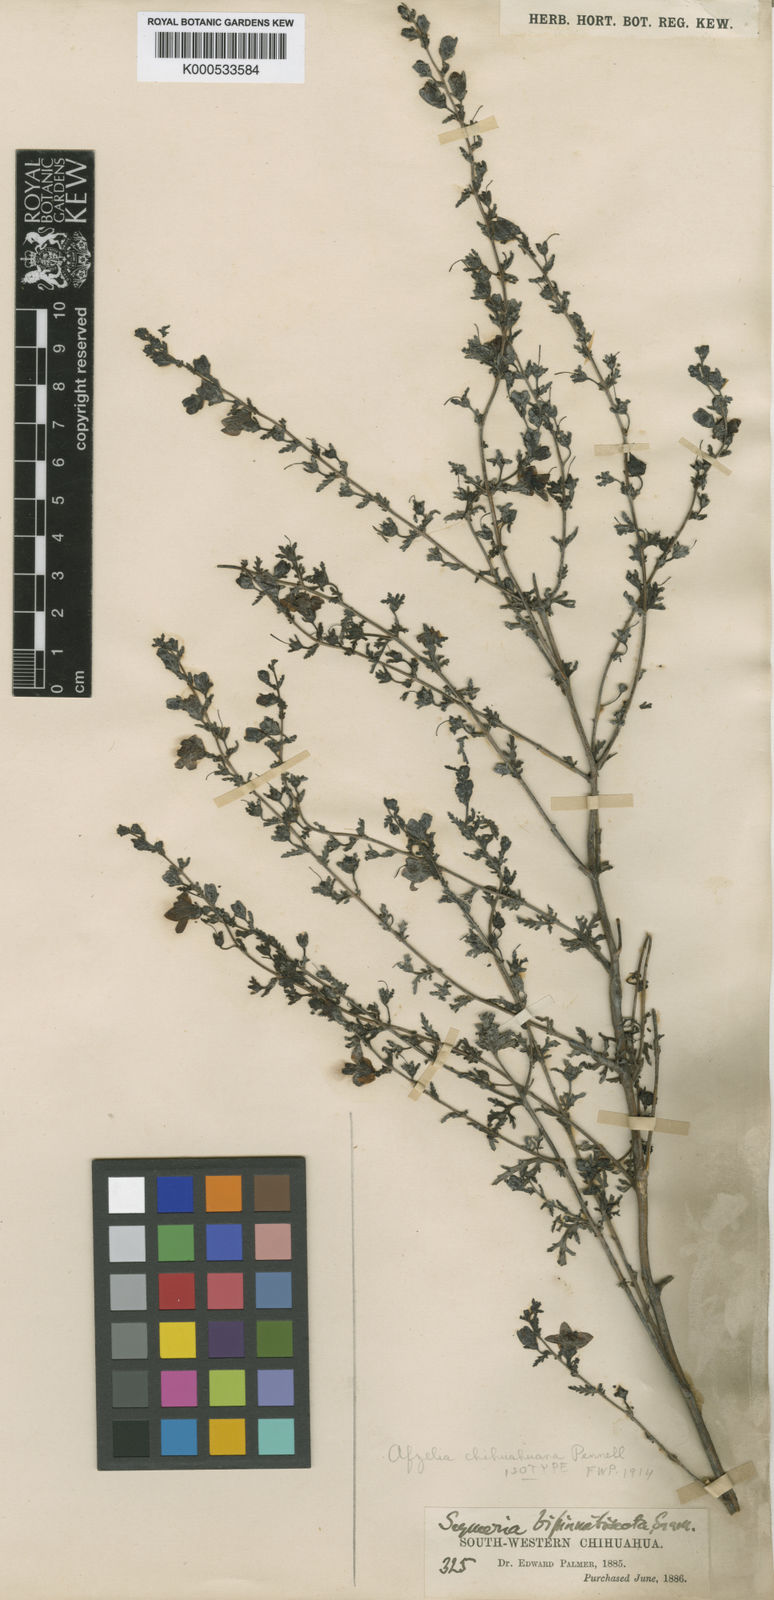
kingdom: Plantae
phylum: Tracheophyta
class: Magnoliopsida
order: Lamiales
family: Orobanchaceae
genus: Seymeria
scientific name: Seymeria bipinnatisecta
